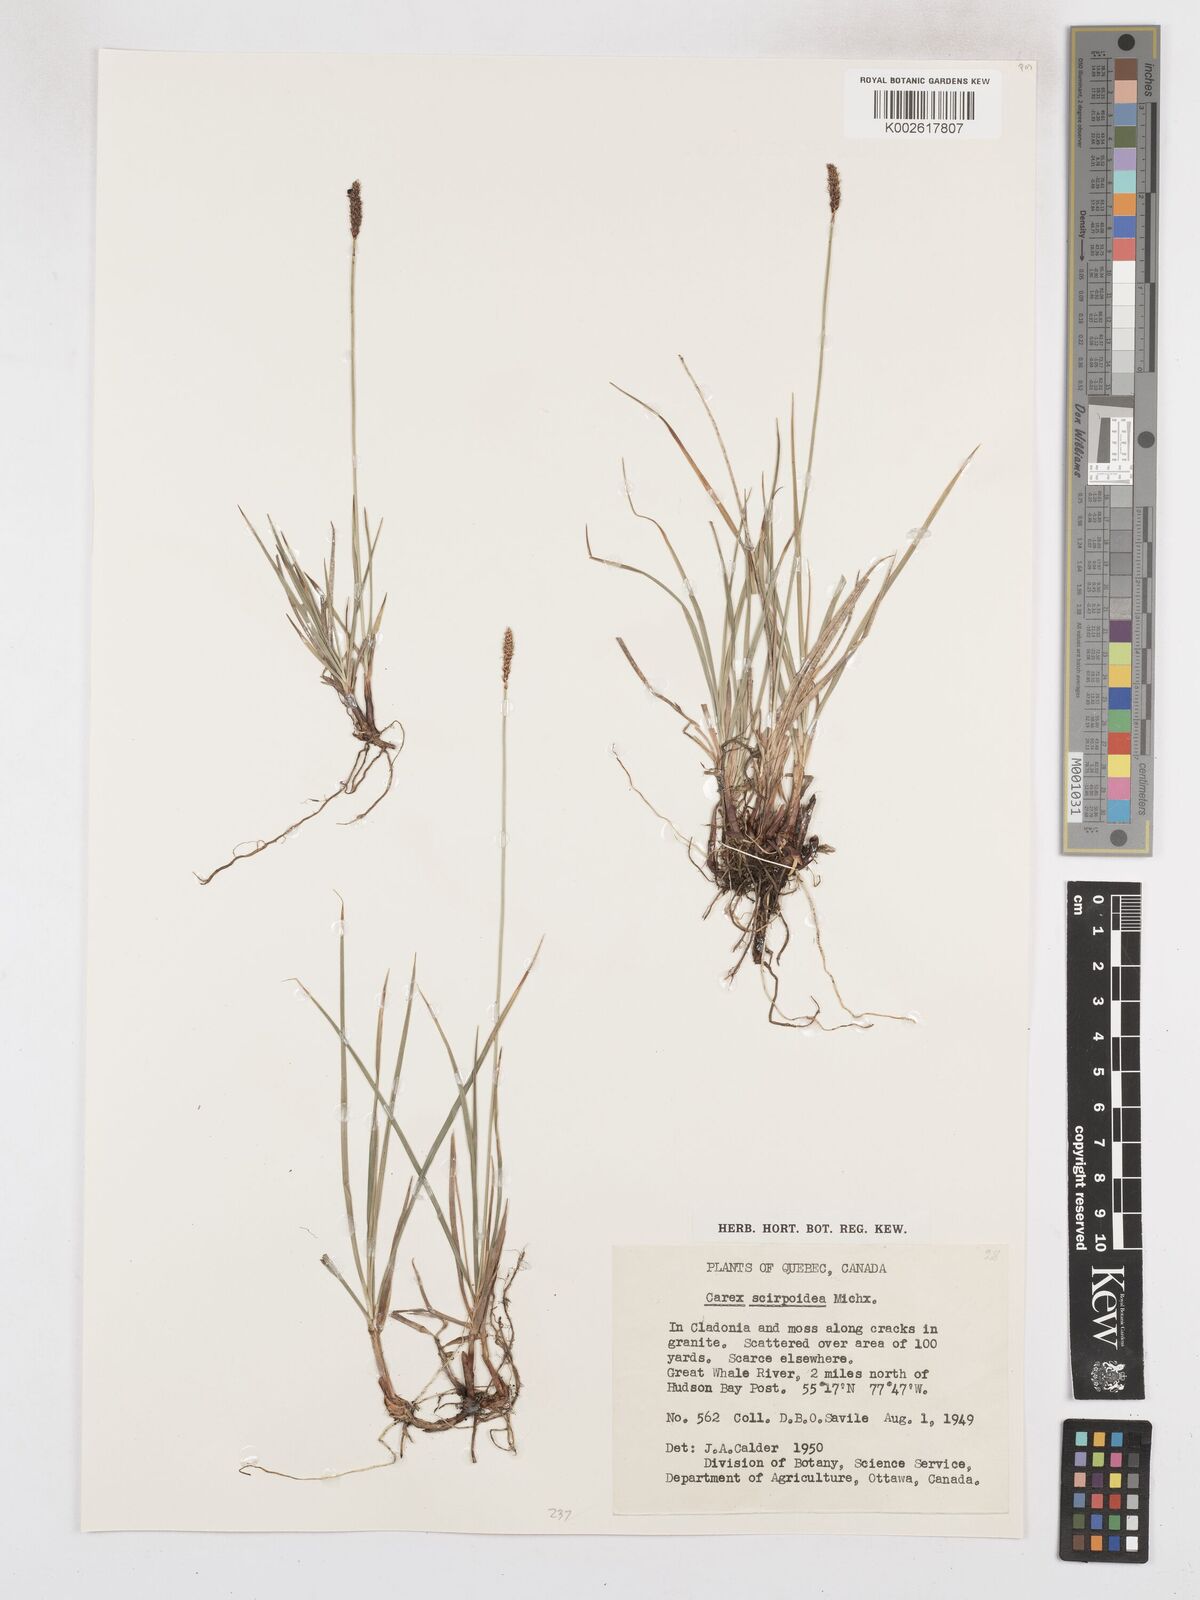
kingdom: Plantae
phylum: Tracheophyta
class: Liliopsida
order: Poales
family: Cyperaceae
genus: Carex
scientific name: Carex scirpoidea
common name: Canada single-spike sedge
